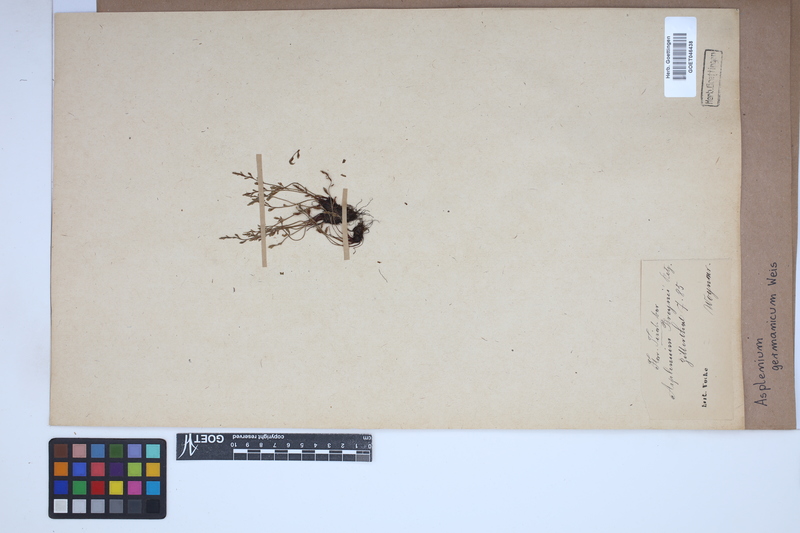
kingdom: Plantae
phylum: Tracheophyta
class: Polypodiopsida
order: Polypodiales
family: Aspleniaceae
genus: Asplenium
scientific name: Asplenium
